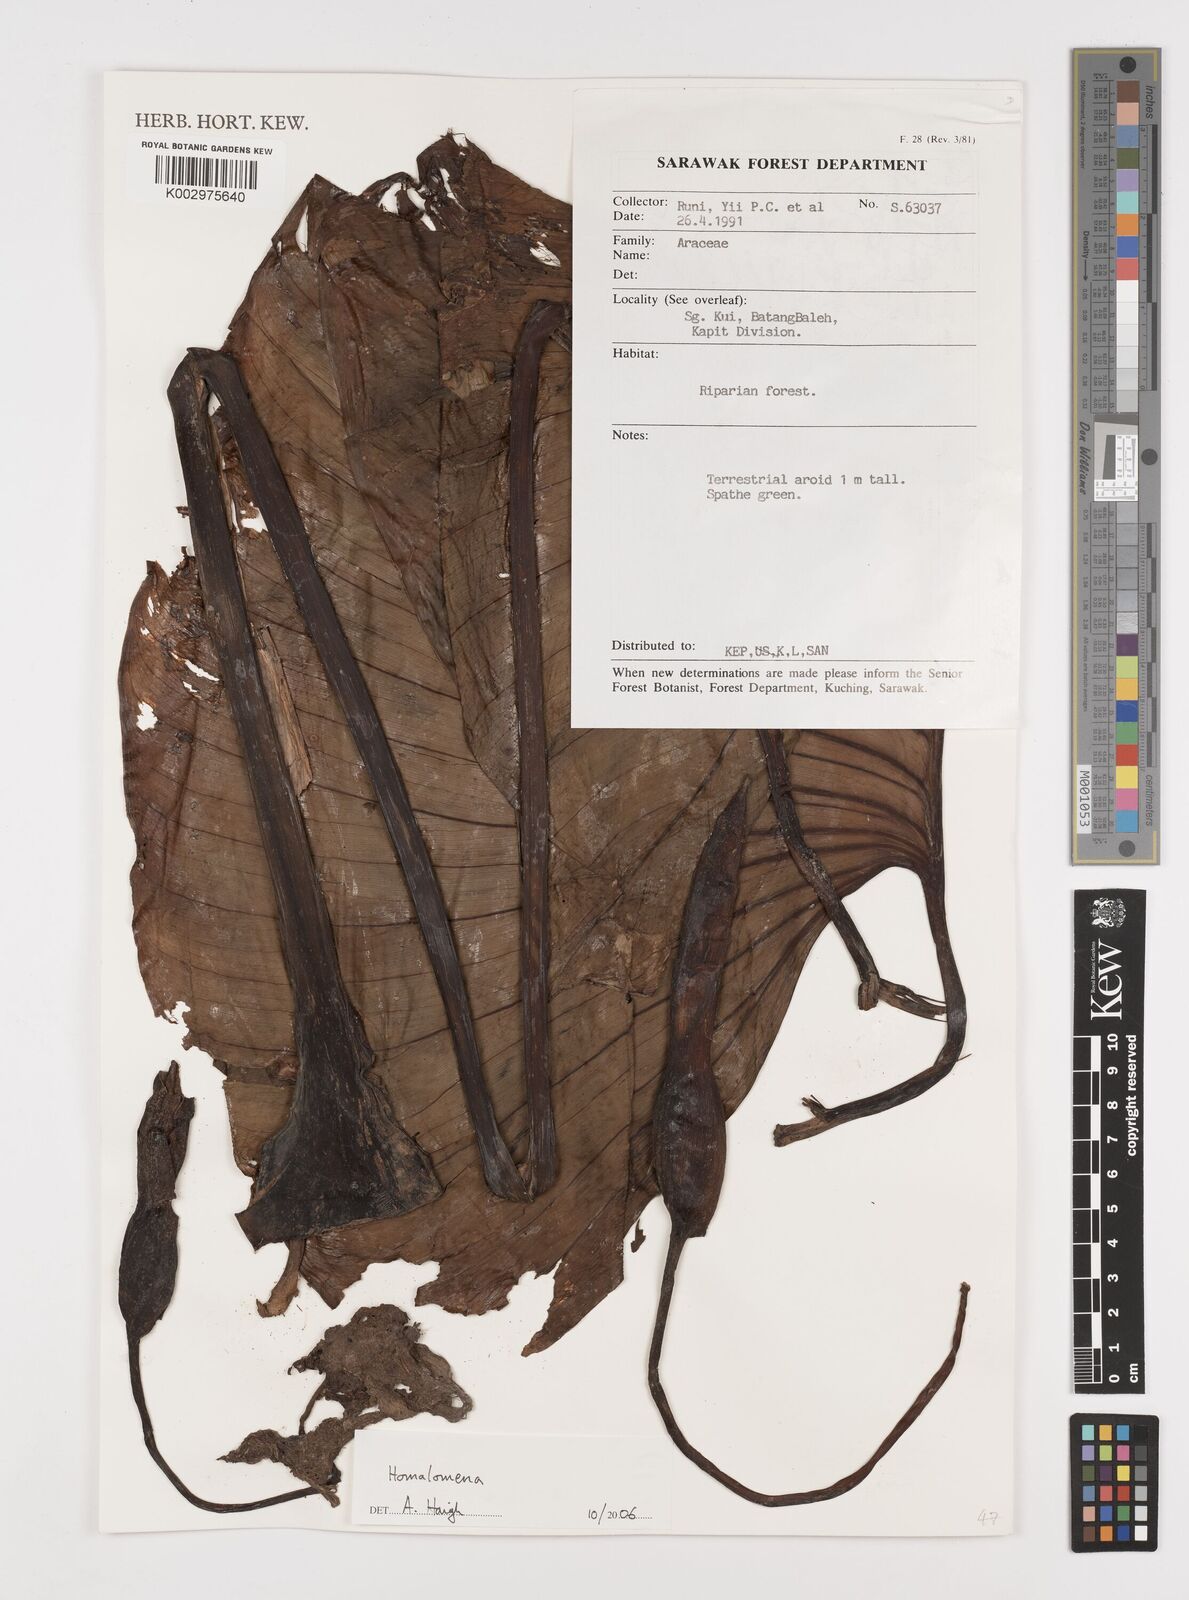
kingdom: Plantae
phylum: Tracheophyta
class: Liliopsida
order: Alismatales
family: Araceae
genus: Homalomena
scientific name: Homalomena
